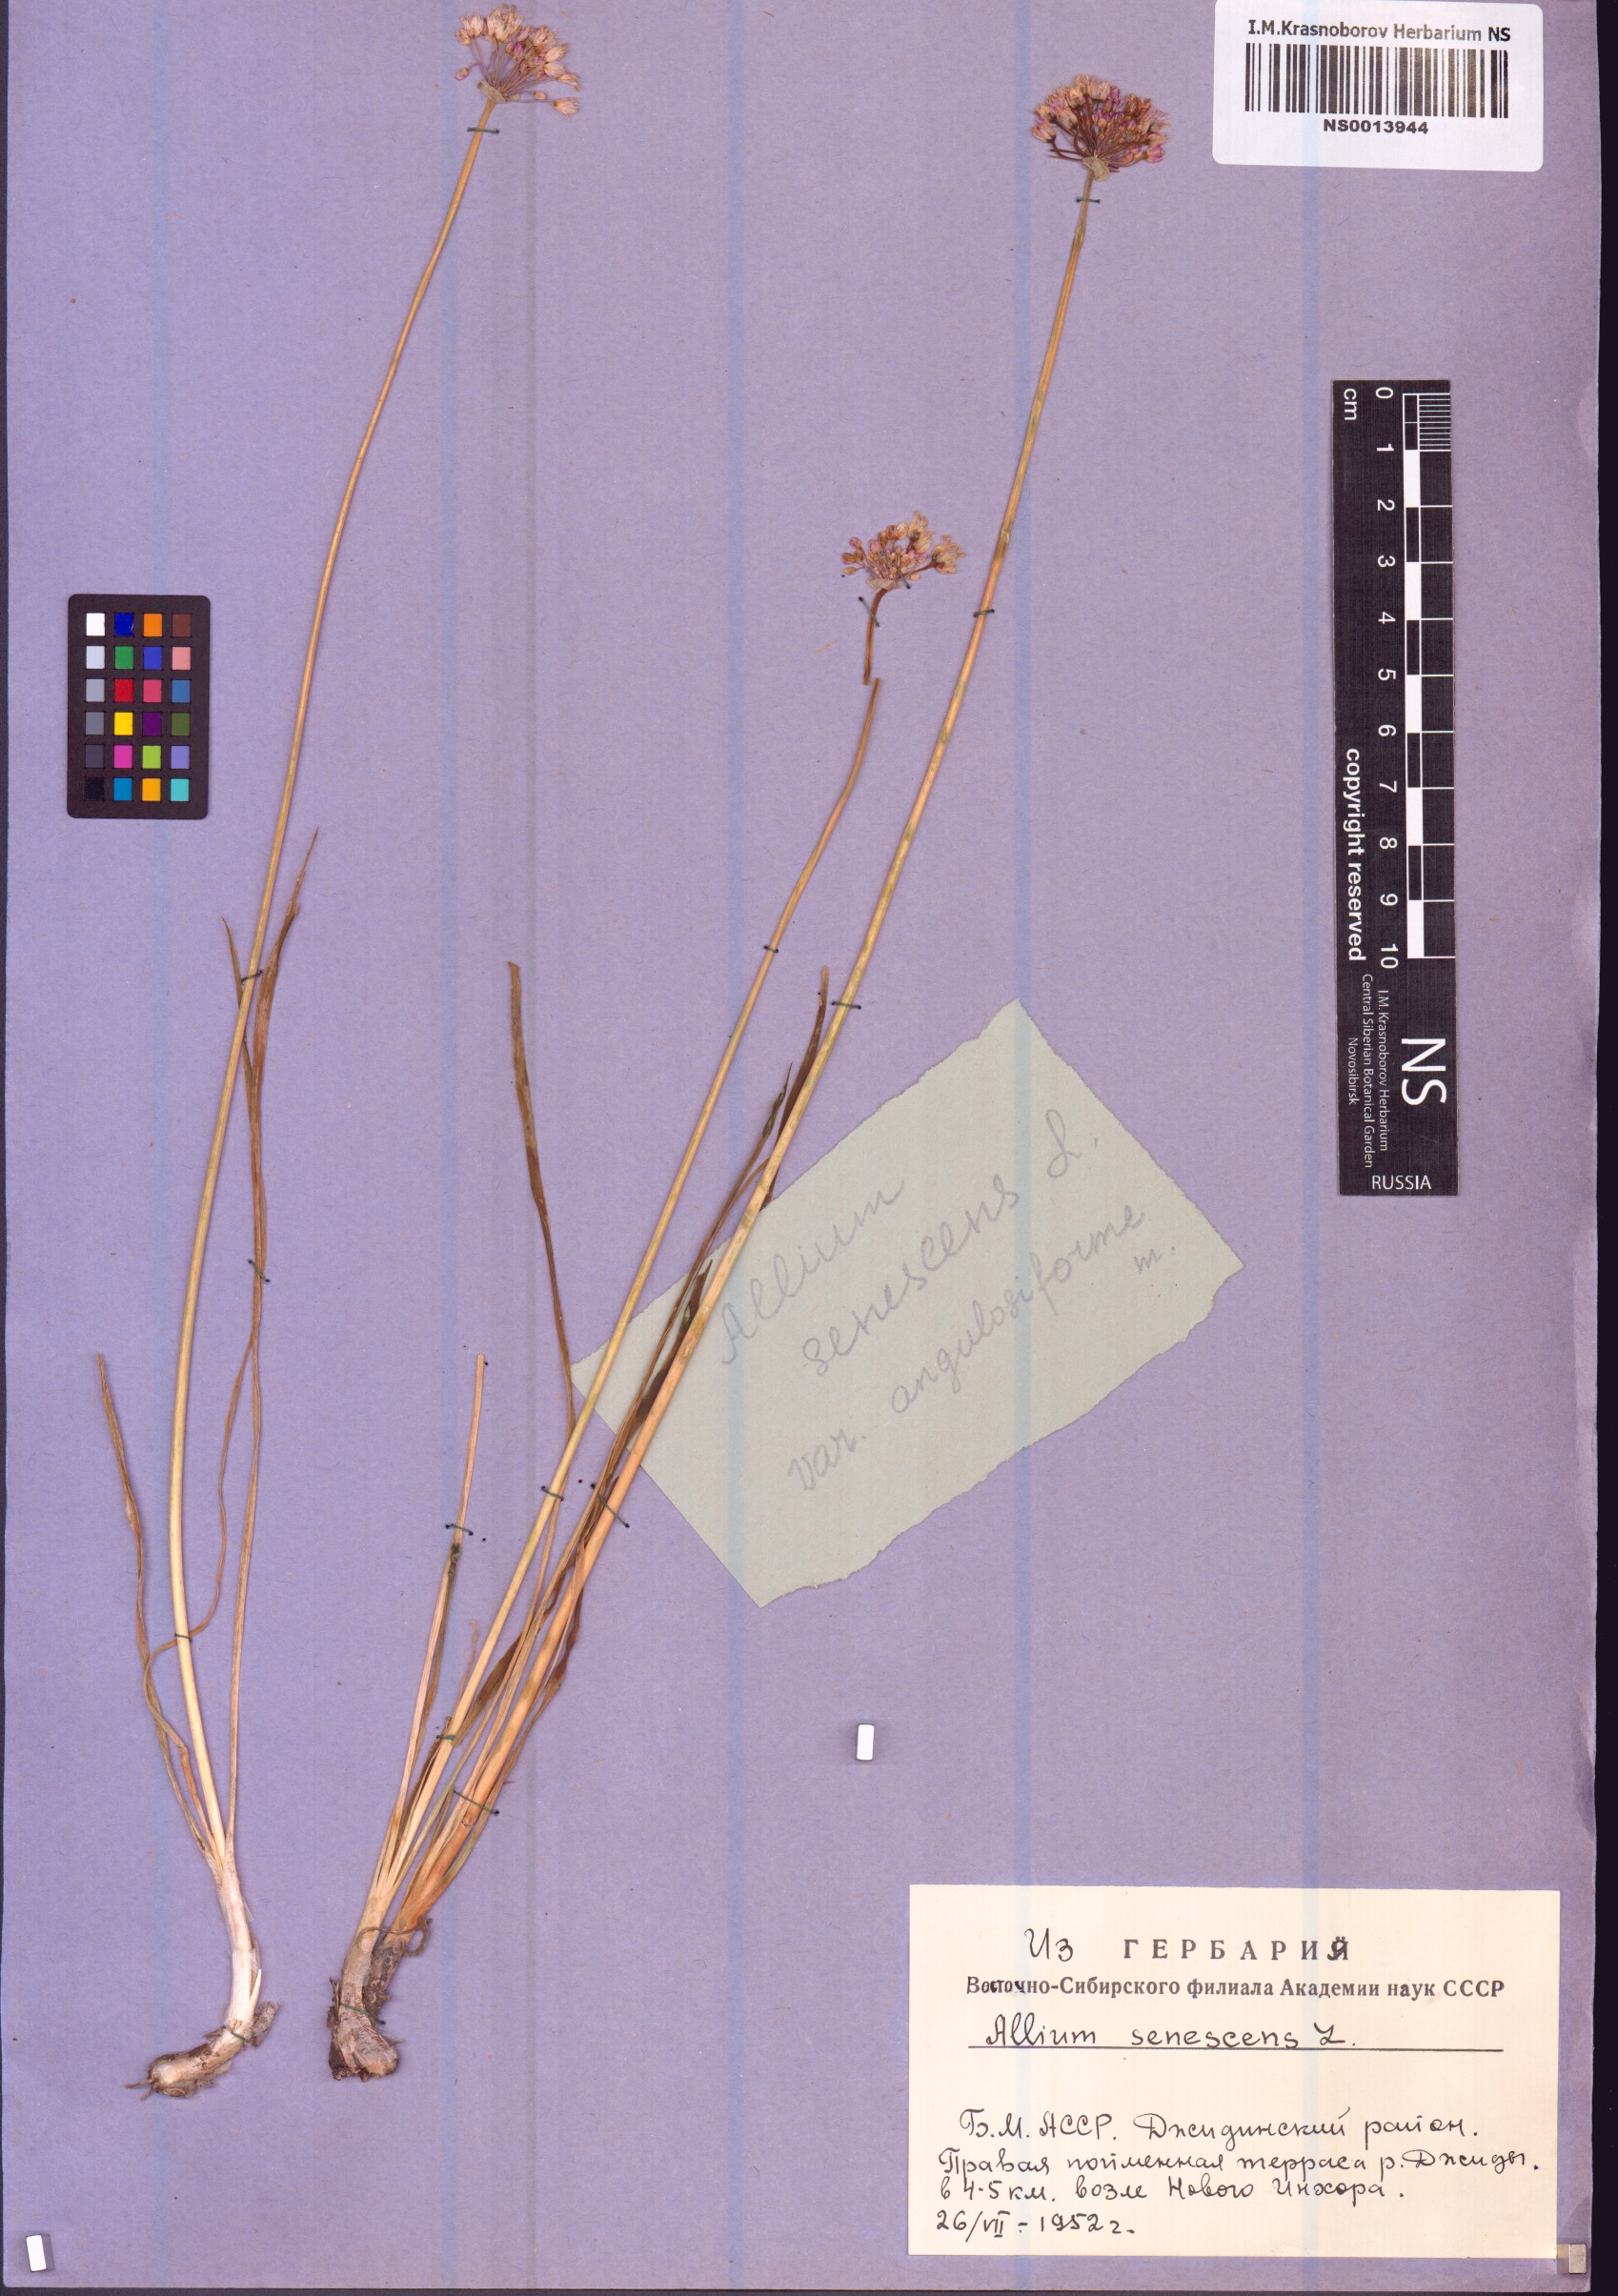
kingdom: Plantae
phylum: Tracheophyta
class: Liliopsida
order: Asparagales
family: Amaryllidaceae
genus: Allium
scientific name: Allium senescens
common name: German garlic
